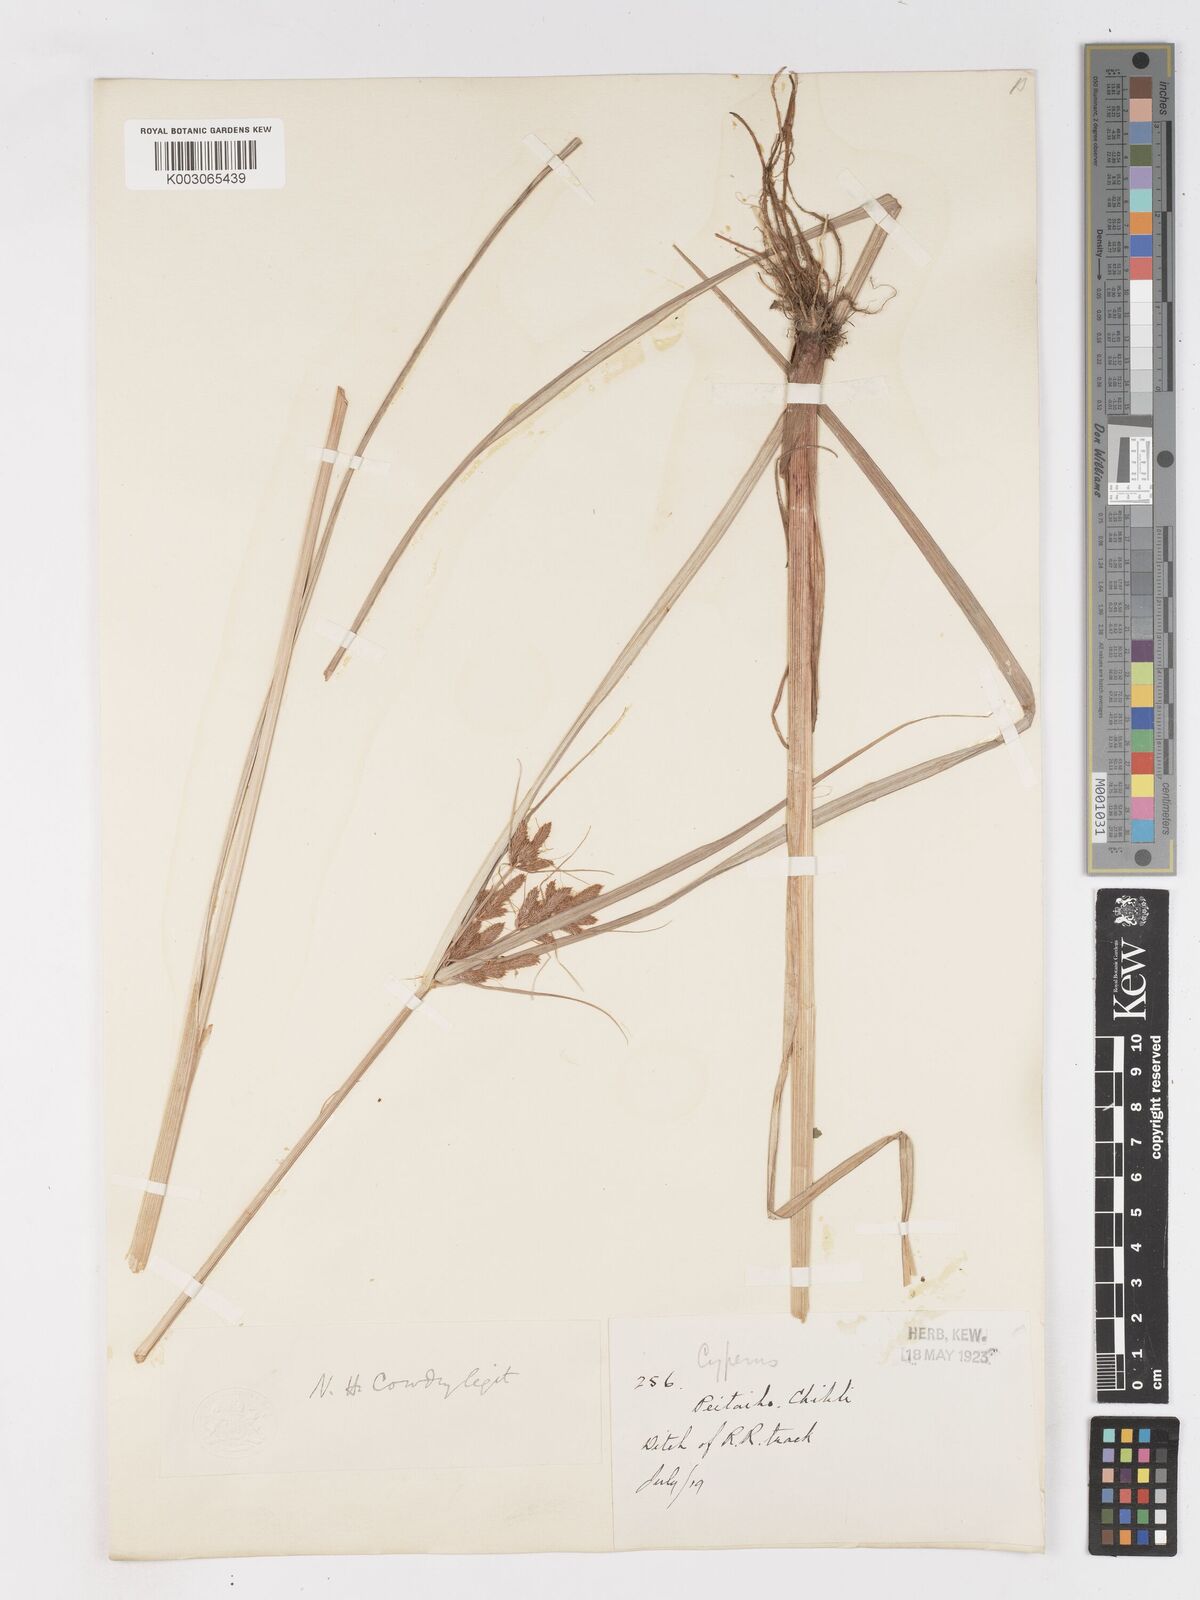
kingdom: Plantae
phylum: Tracheophyta
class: Liliopsida
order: Poales
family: Cyperaceae
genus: Cyperus
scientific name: Cyperus
